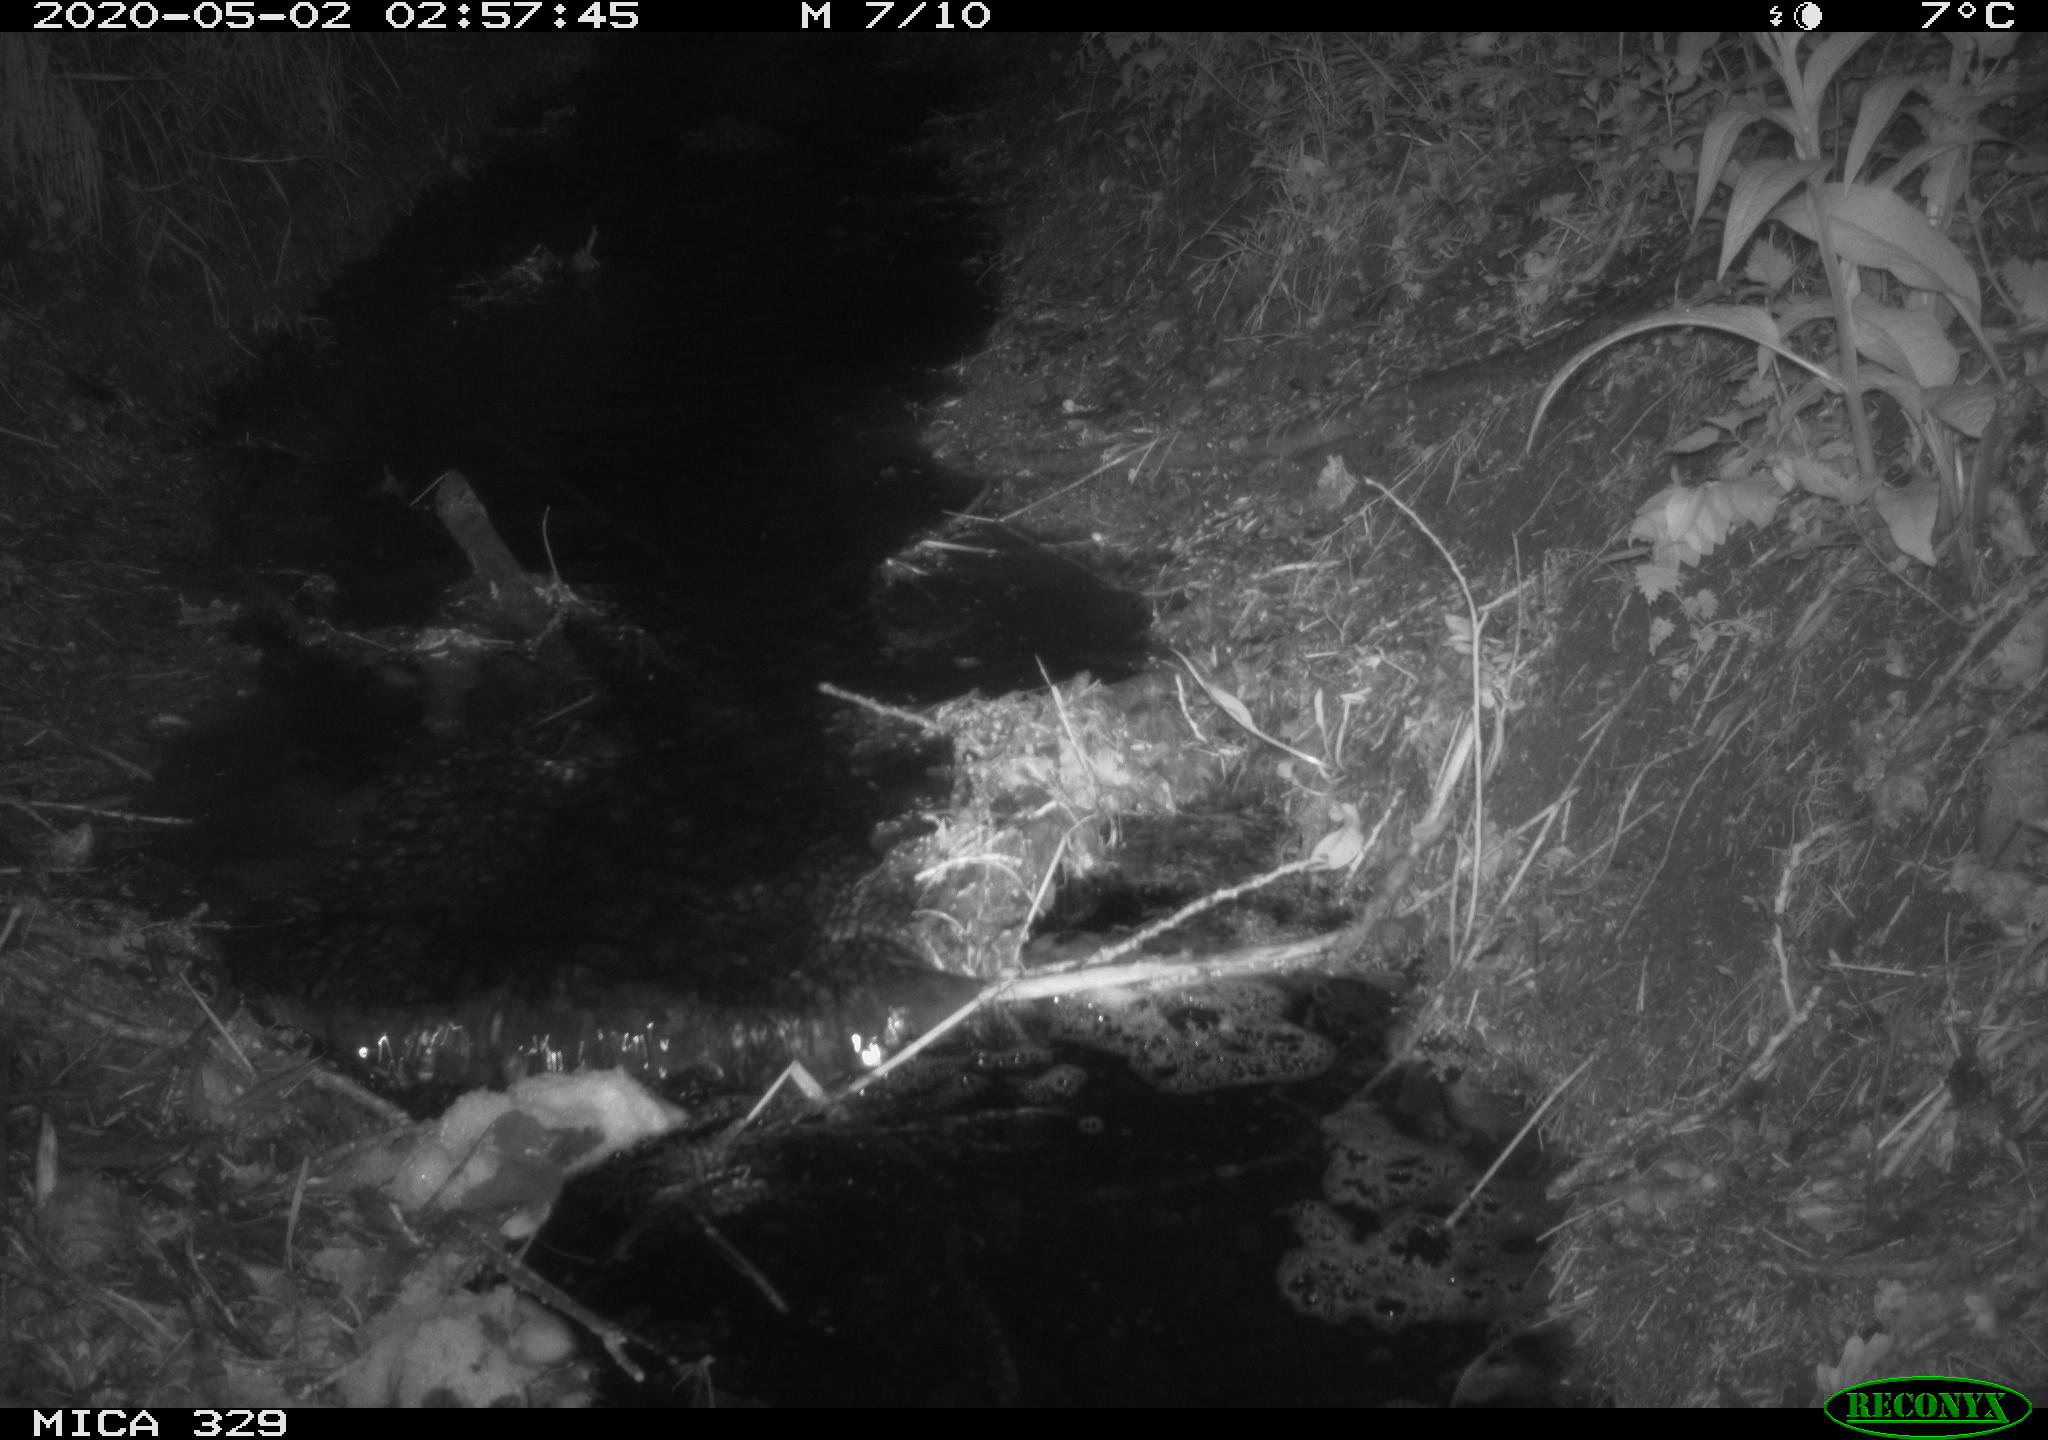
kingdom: Animalia
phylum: Chordata
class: Mammalia
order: Rodentia
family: Cricetidae
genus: Ondatra
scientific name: Ondatra zibethicus
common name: Muskrat
